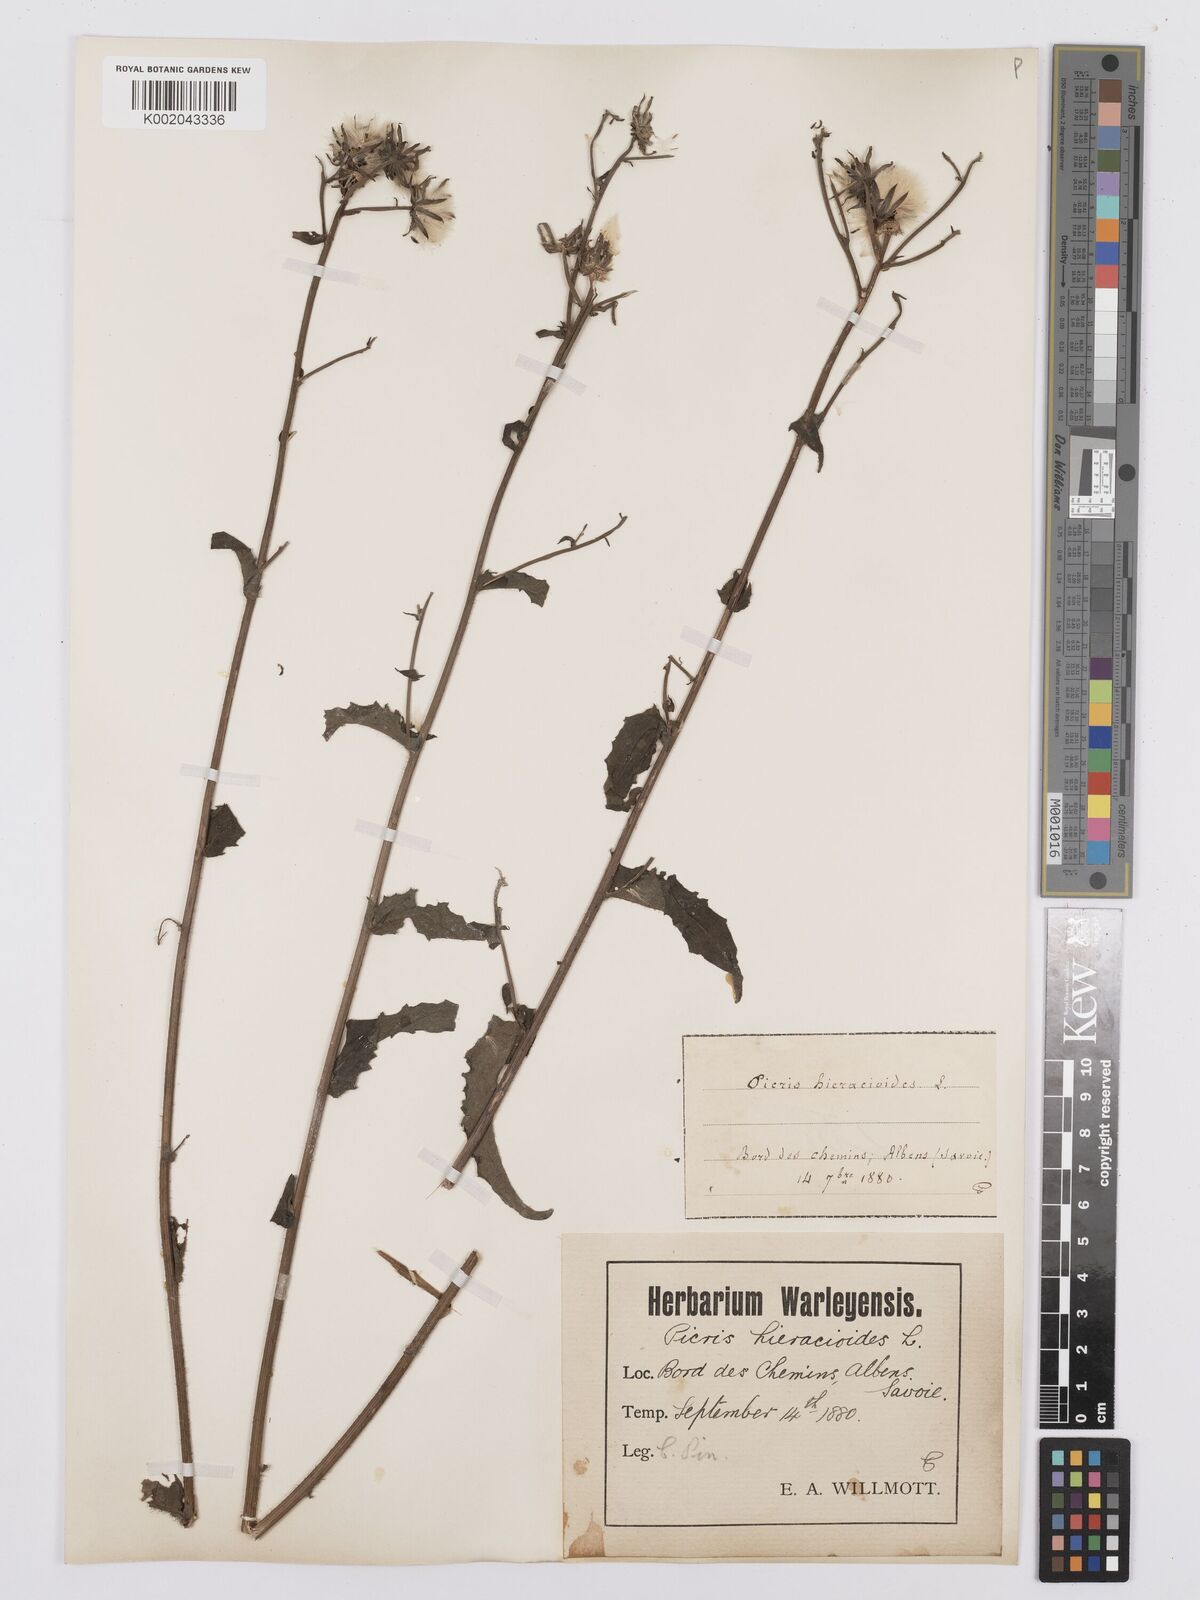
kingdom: Plantae
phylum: Tracheophyta
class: Magnoliopsida
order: Asterales
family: Asteraceae
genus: Picris
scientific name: Picris hieracioides
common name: Hawkweed oxtongue
